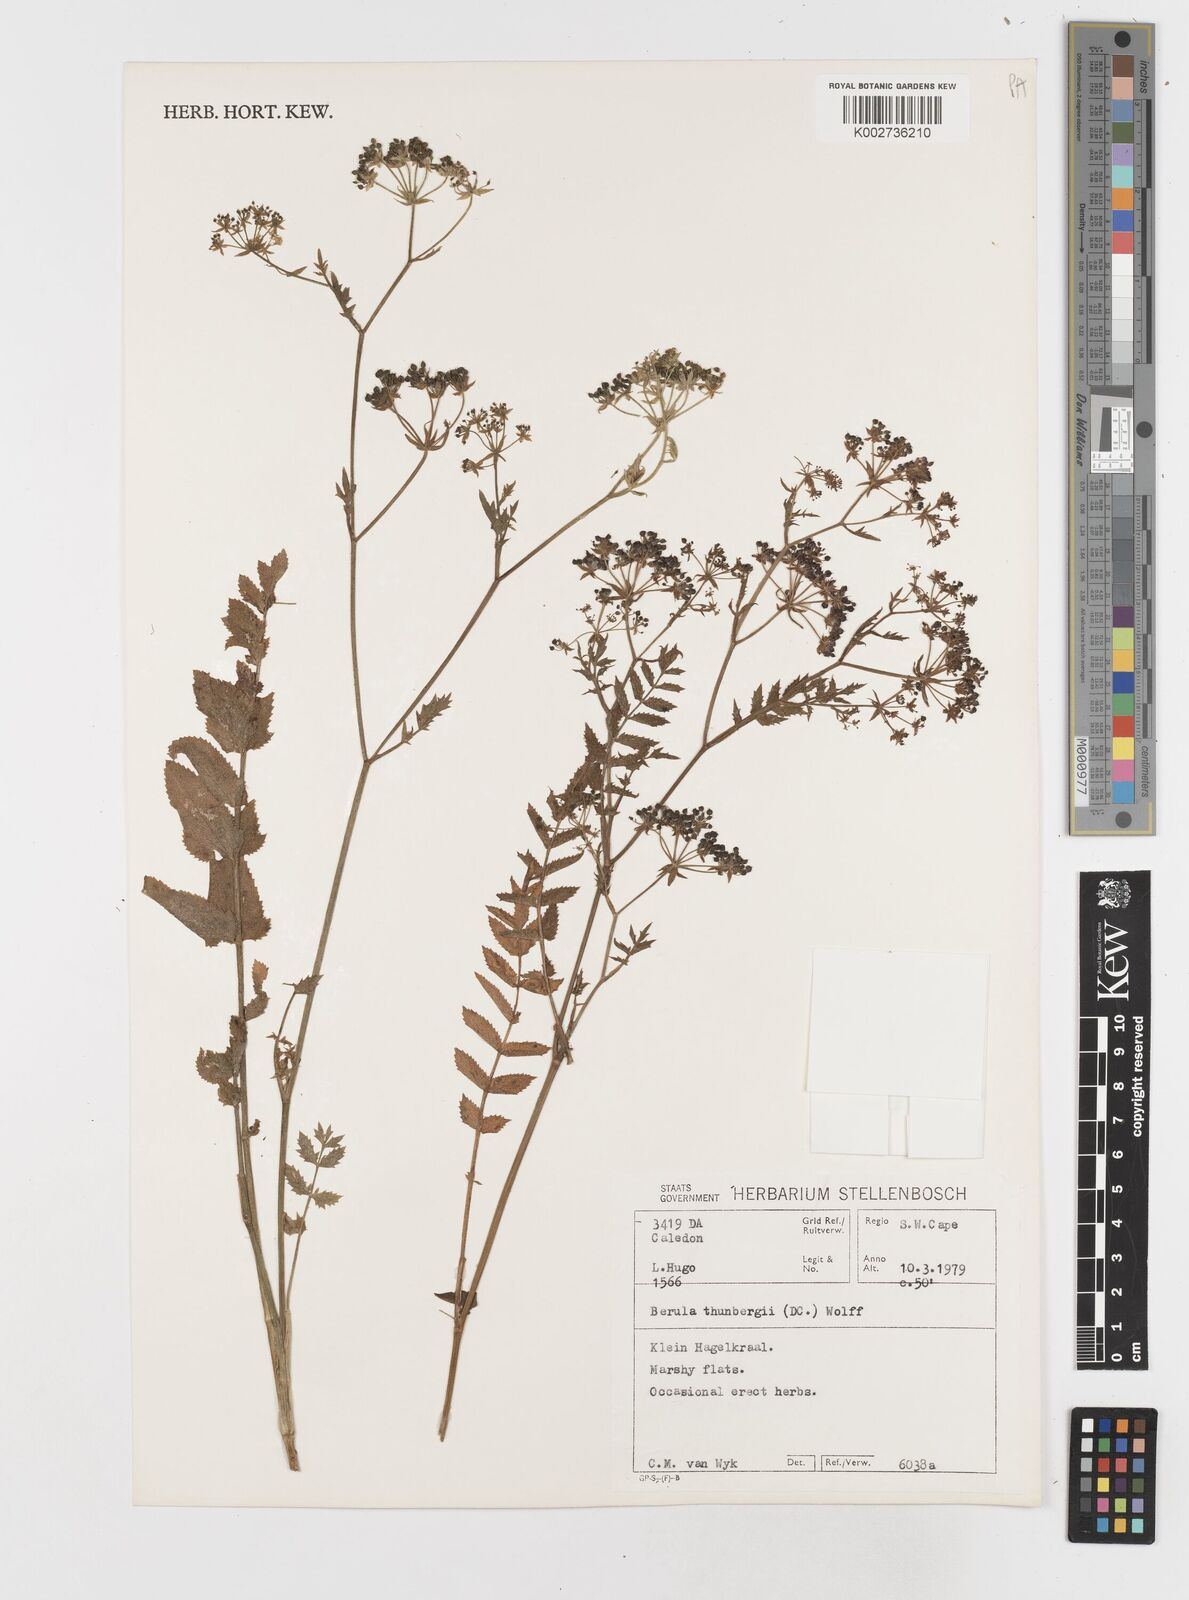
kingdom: Plantae
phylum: Tracheophyta
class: Magnoliopsida
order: Apiales
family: Apiaceae
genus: Berula
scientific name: Berula erecta
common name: Lesser water-parsnip
